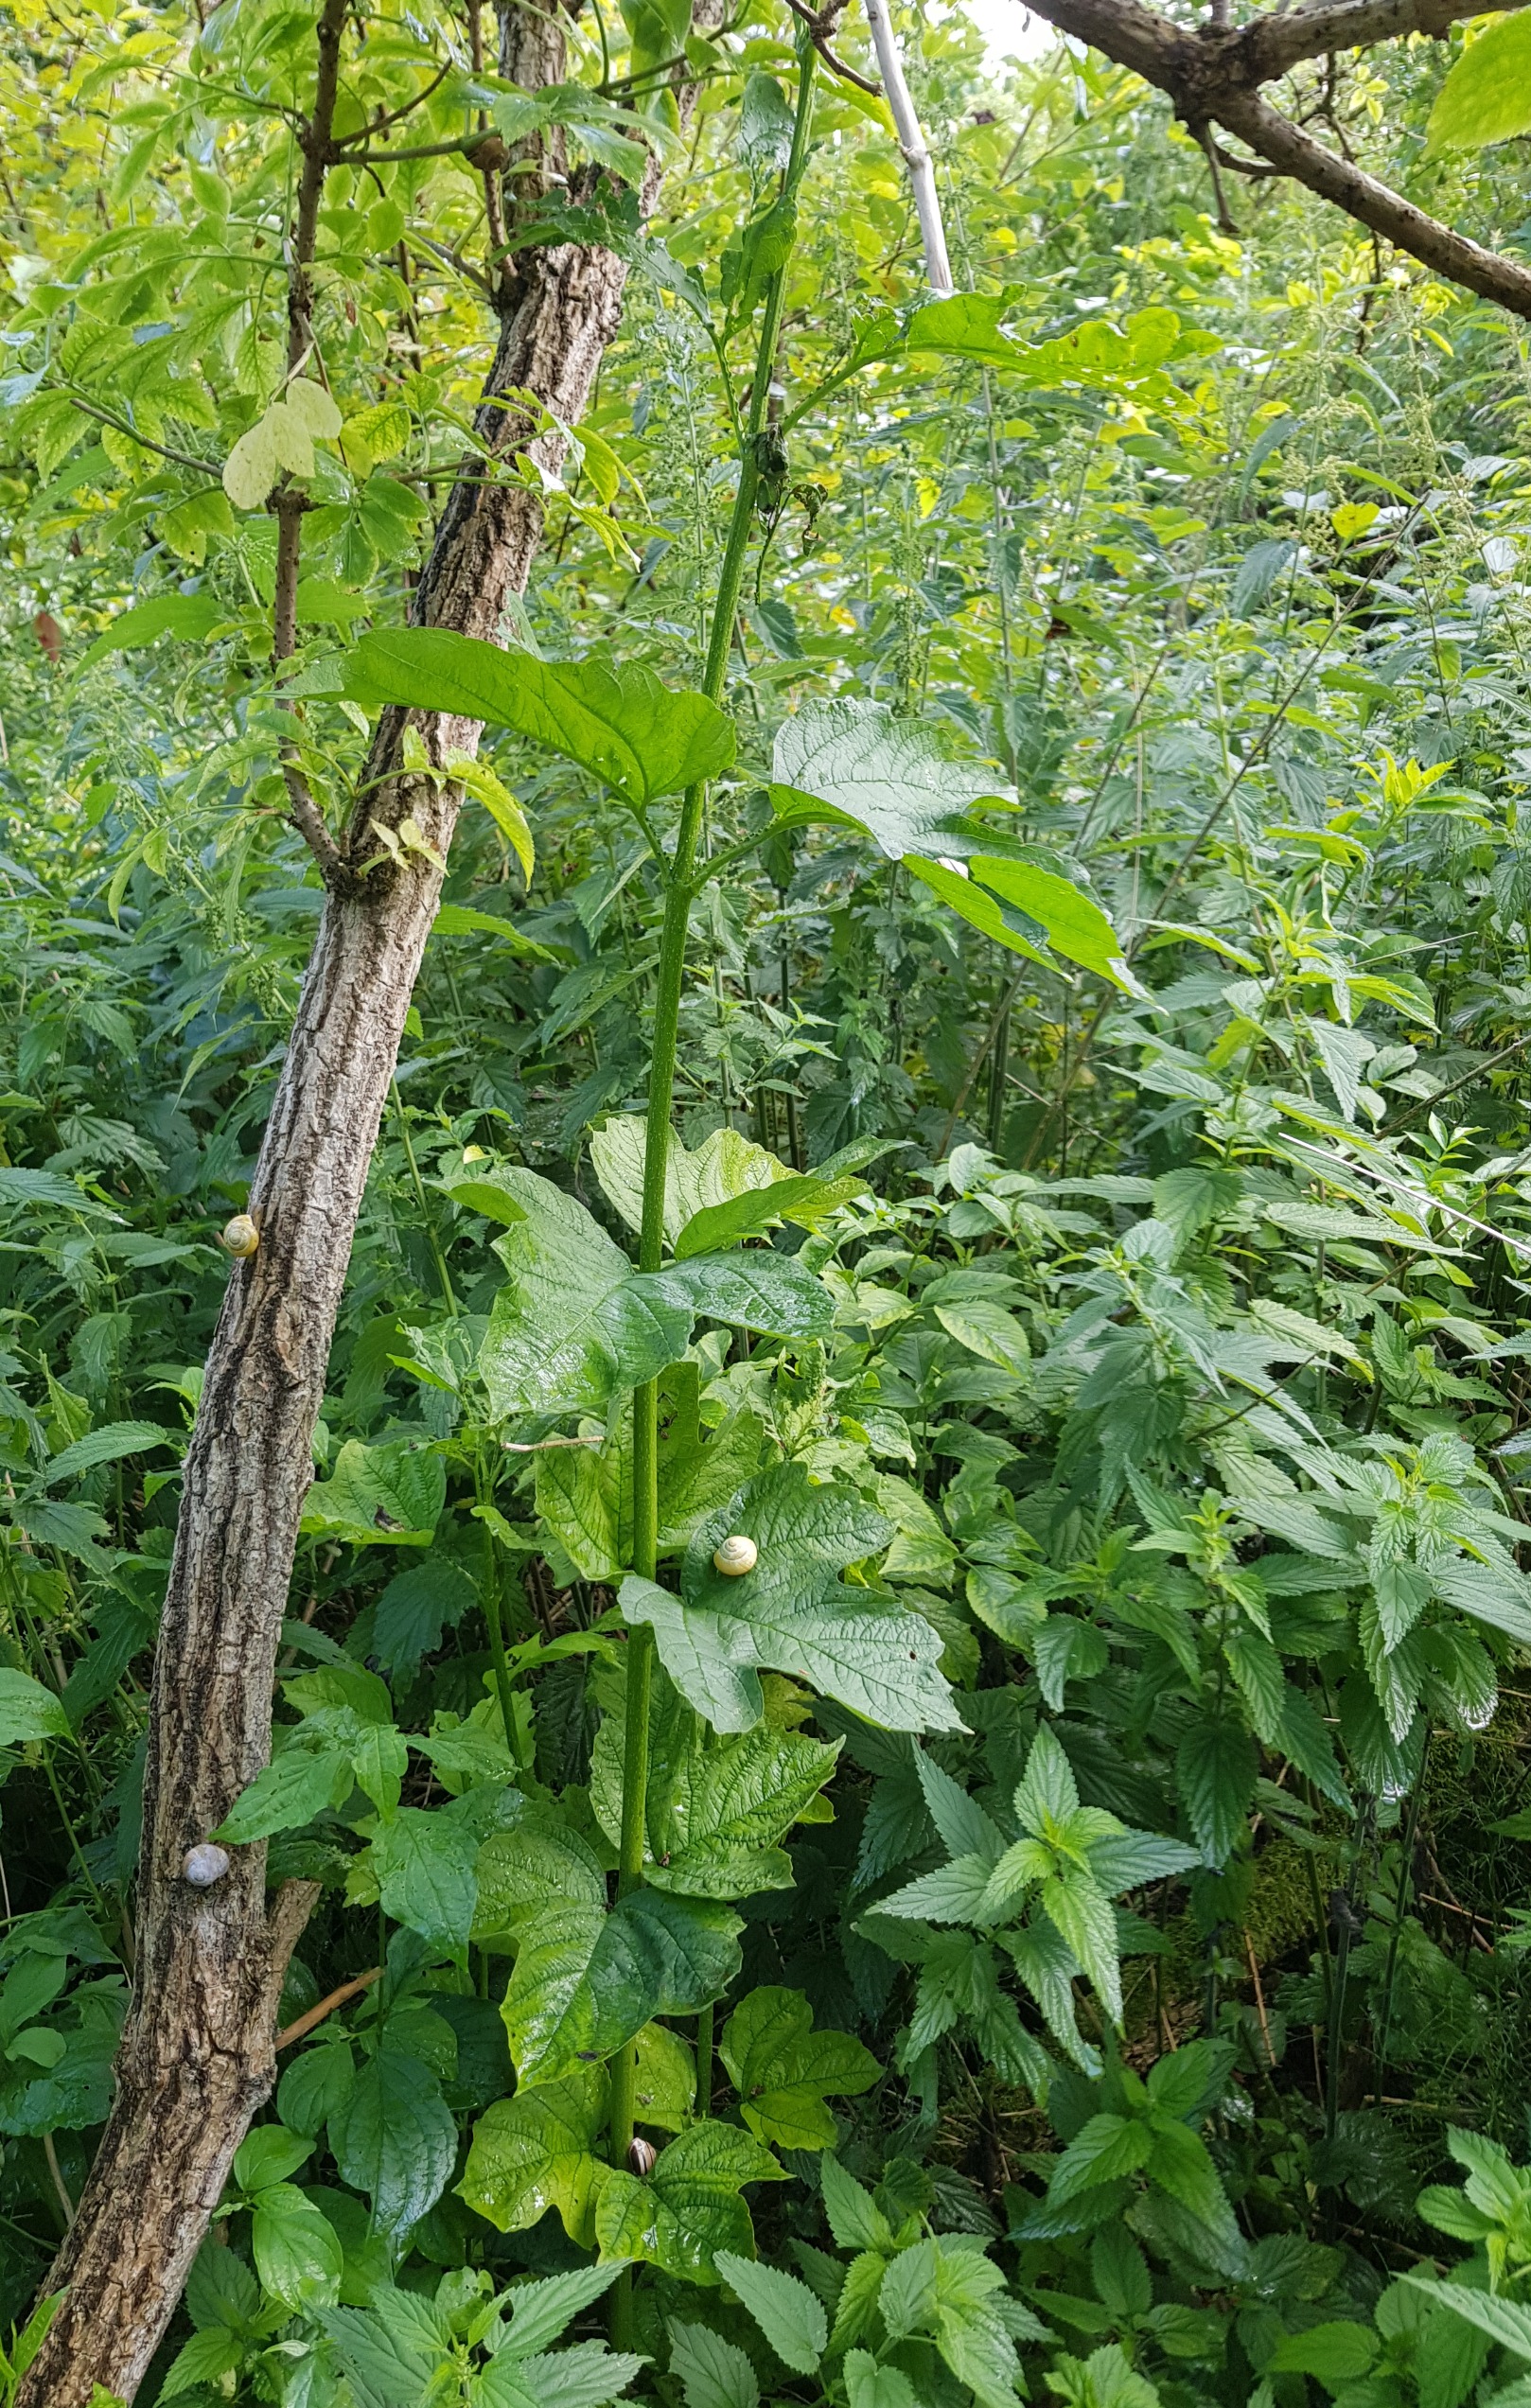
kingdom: Plantae
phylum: Tracheophyta
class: Magnoliopsida
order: Dipsacales
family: Viburnaceae
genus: Viburnum
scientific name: Viburnum opulus
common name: Kvalkved
